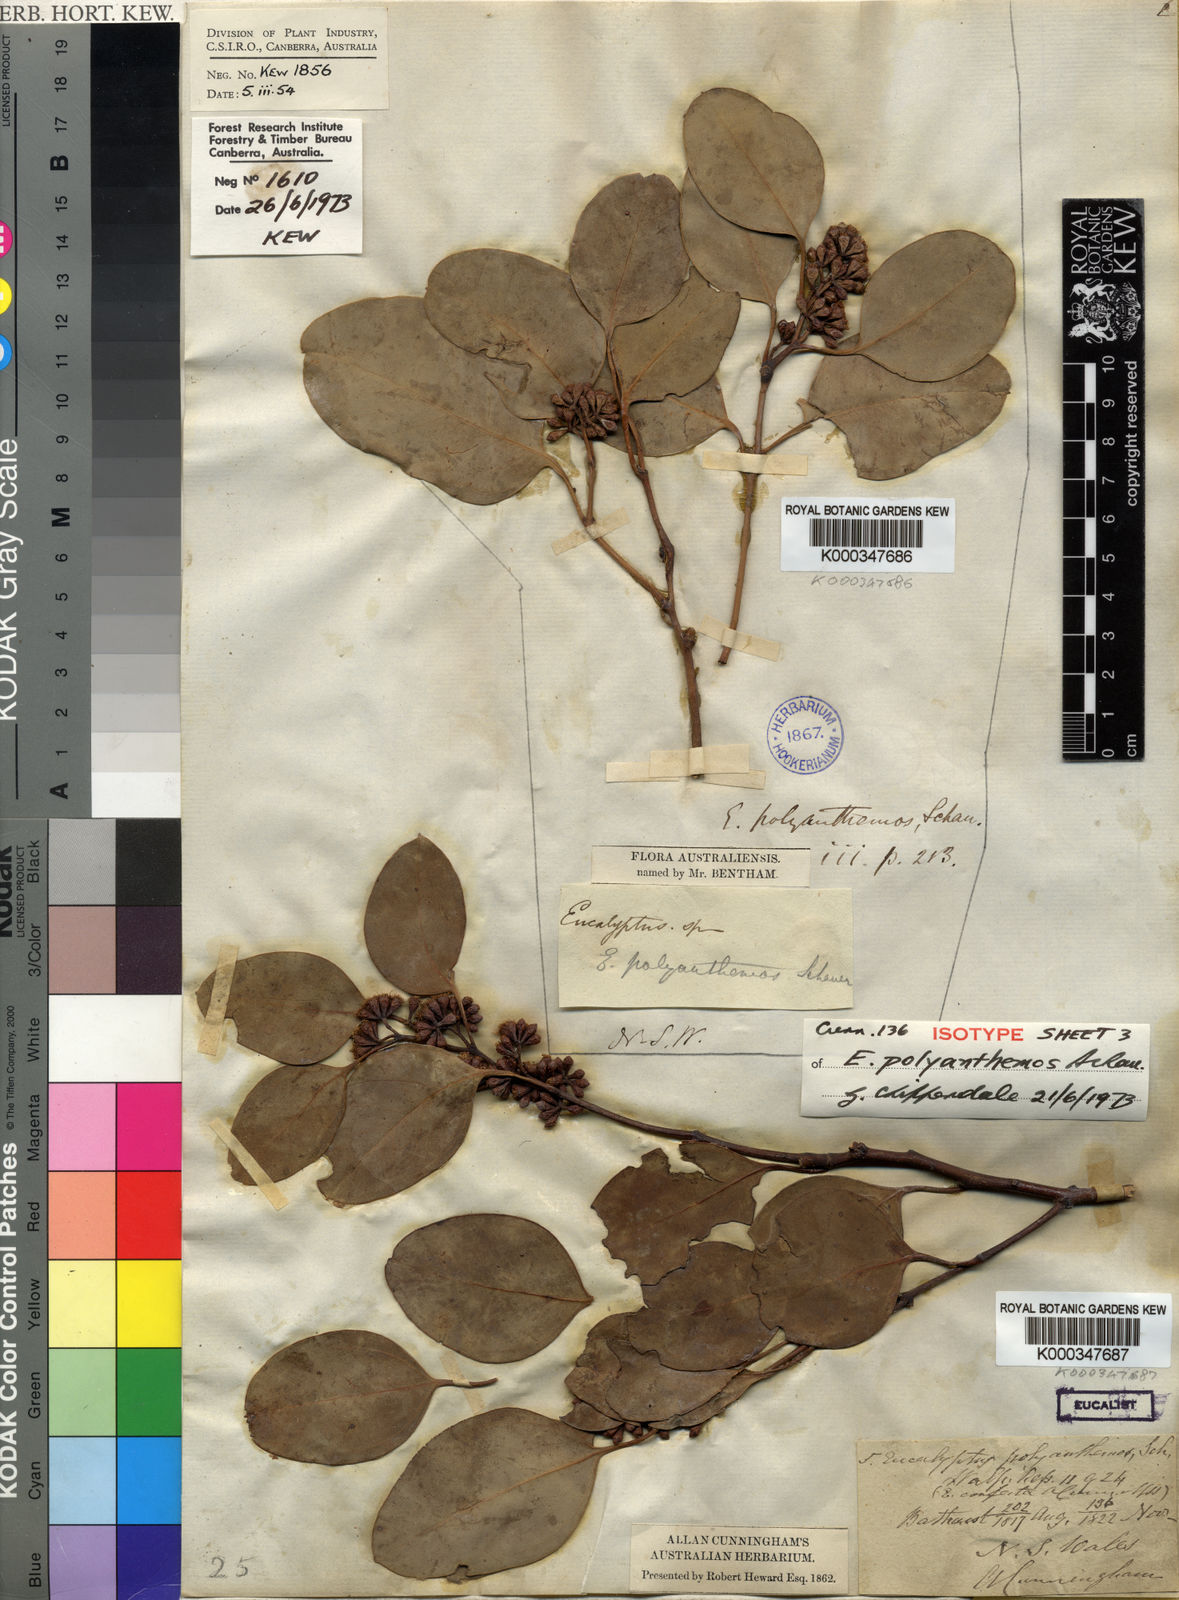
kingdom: Plantae
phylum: Tracheophyta
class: Magnoliopsida
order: Myrtales
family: Myrtaceae
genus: Eucalyptus
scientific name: Eucalyptus polyanthemos
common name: Red-box
